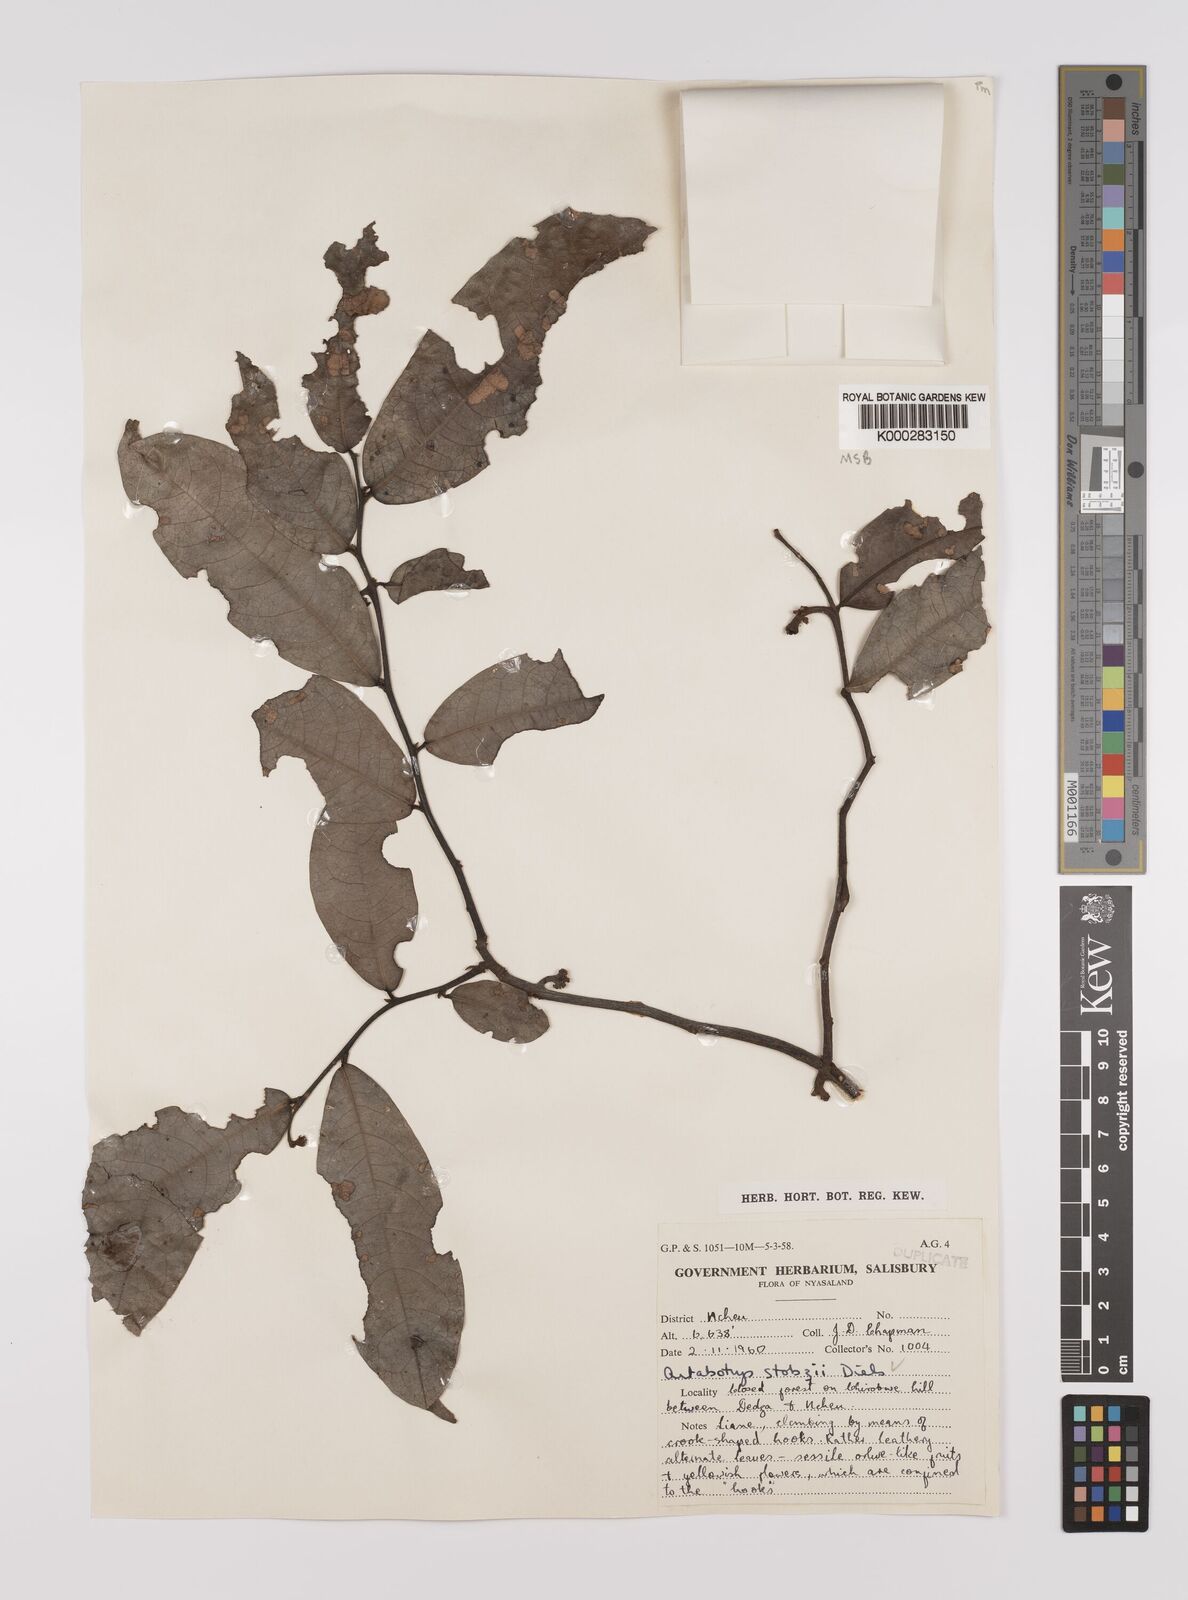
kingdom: Plantae
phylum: Tracheophyta
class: Magnoliopsida
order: Magnoliales
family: Annonaceae
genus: Artabotrys
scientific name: Artabotrys stolzii
